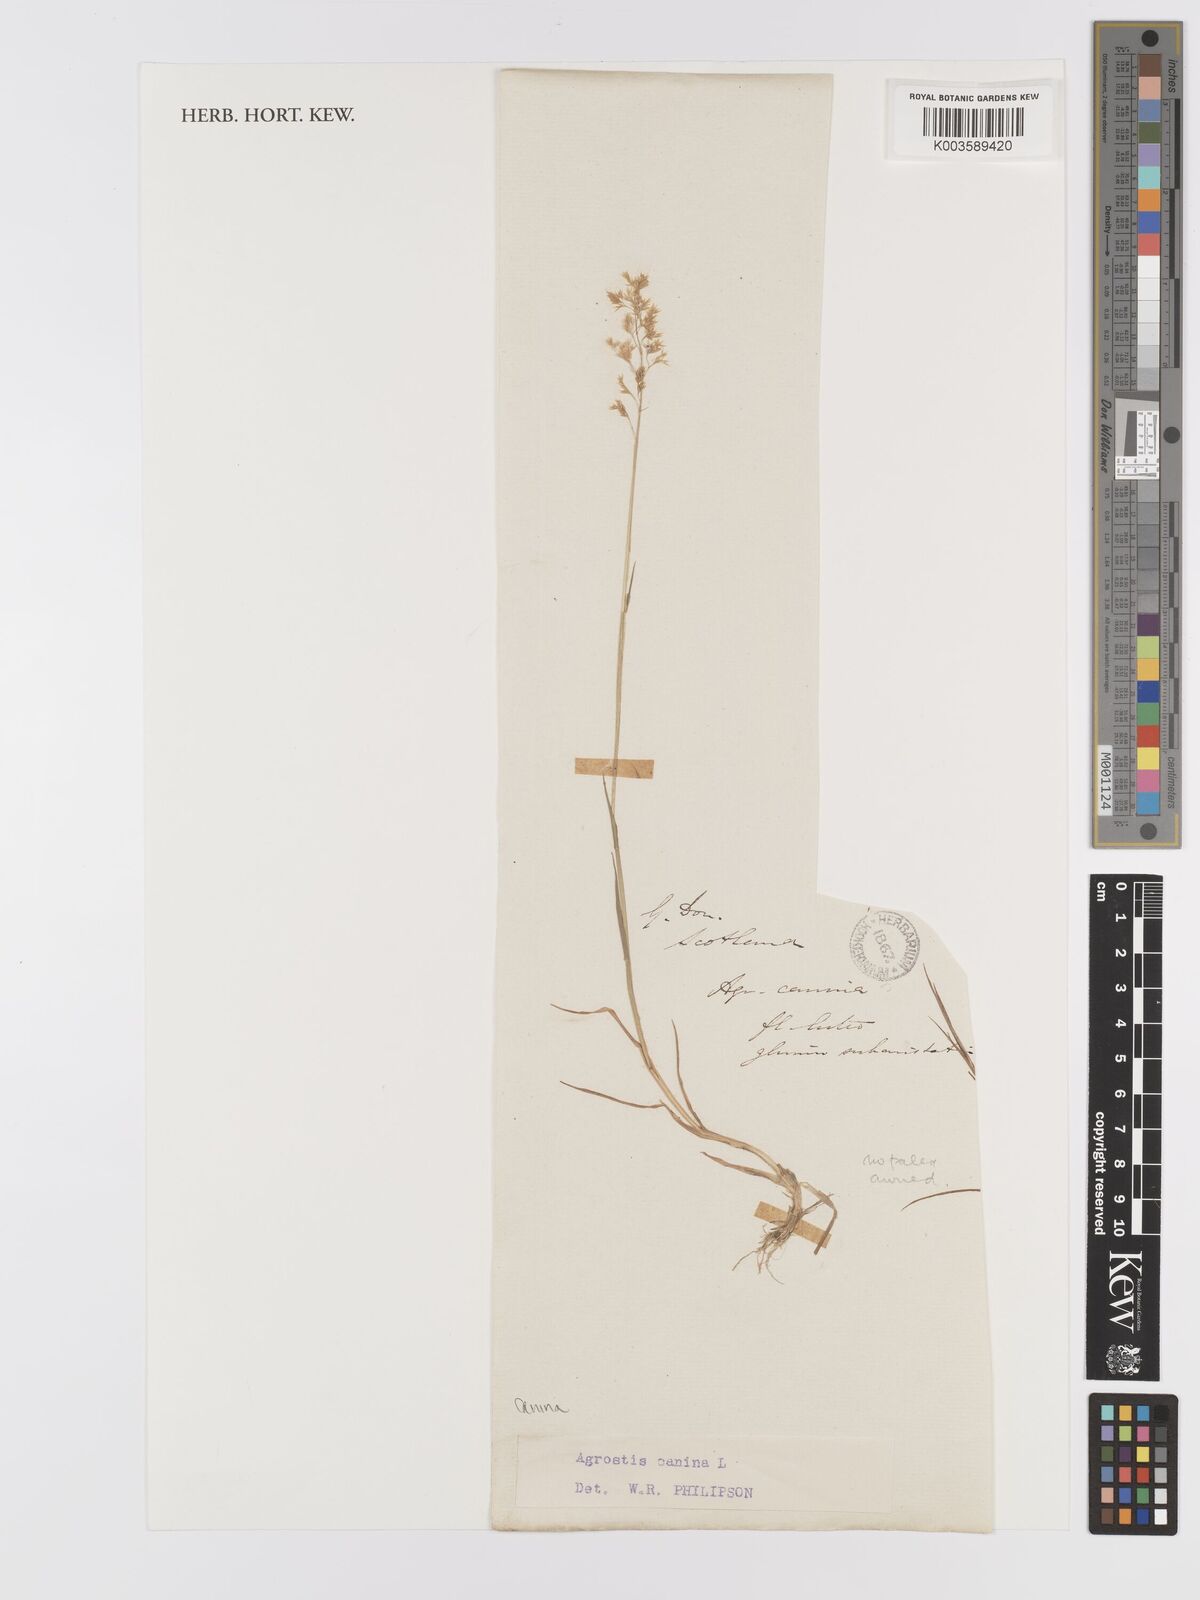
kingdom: Plantae
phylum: Tracheophyta
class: Liliopsida
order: Poales
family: Poaceae
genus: Agrostis
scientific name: Agrostis canina
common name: Velvet bent
